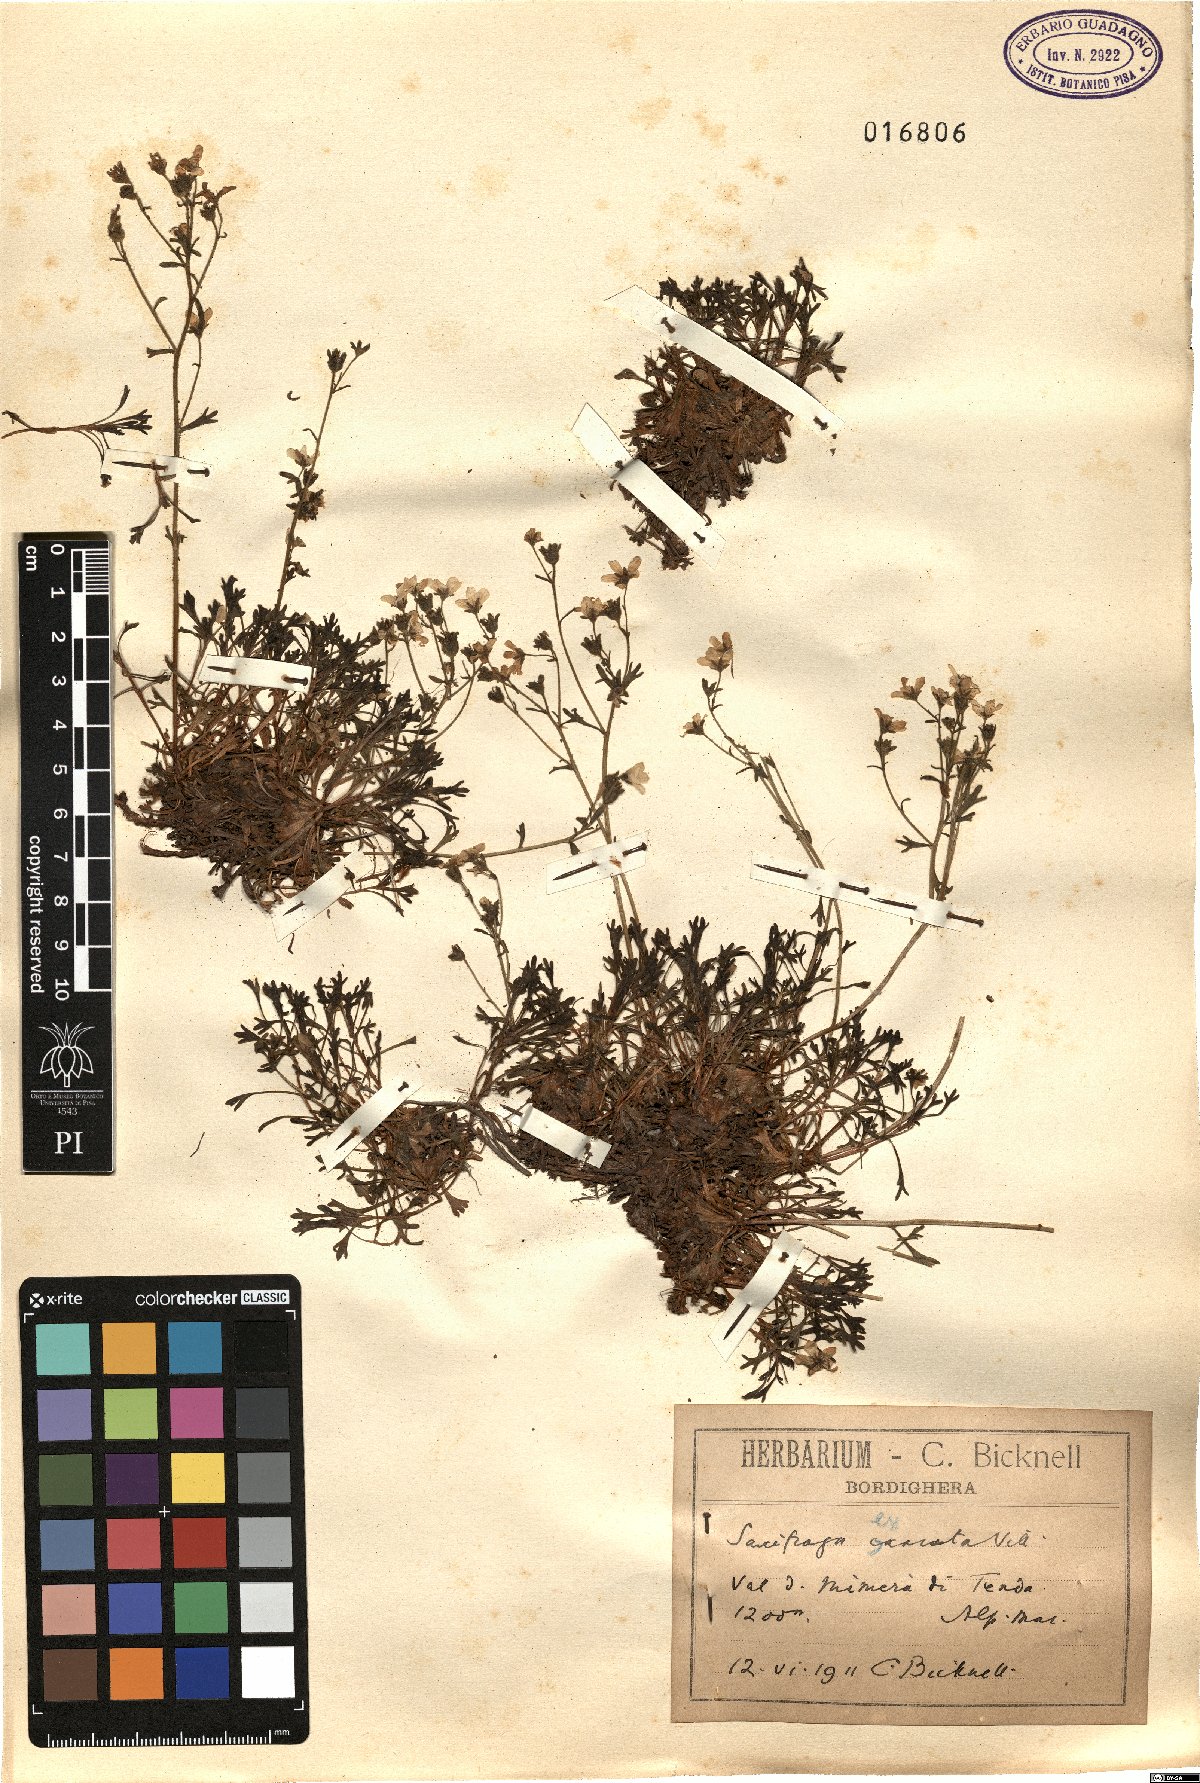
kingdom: Plantae
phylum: Tracheophyta
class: Magnoliopsida
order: Saxifragales
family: Saxifragaceae
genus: Saxifraga
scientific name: Saxifraga exarata
